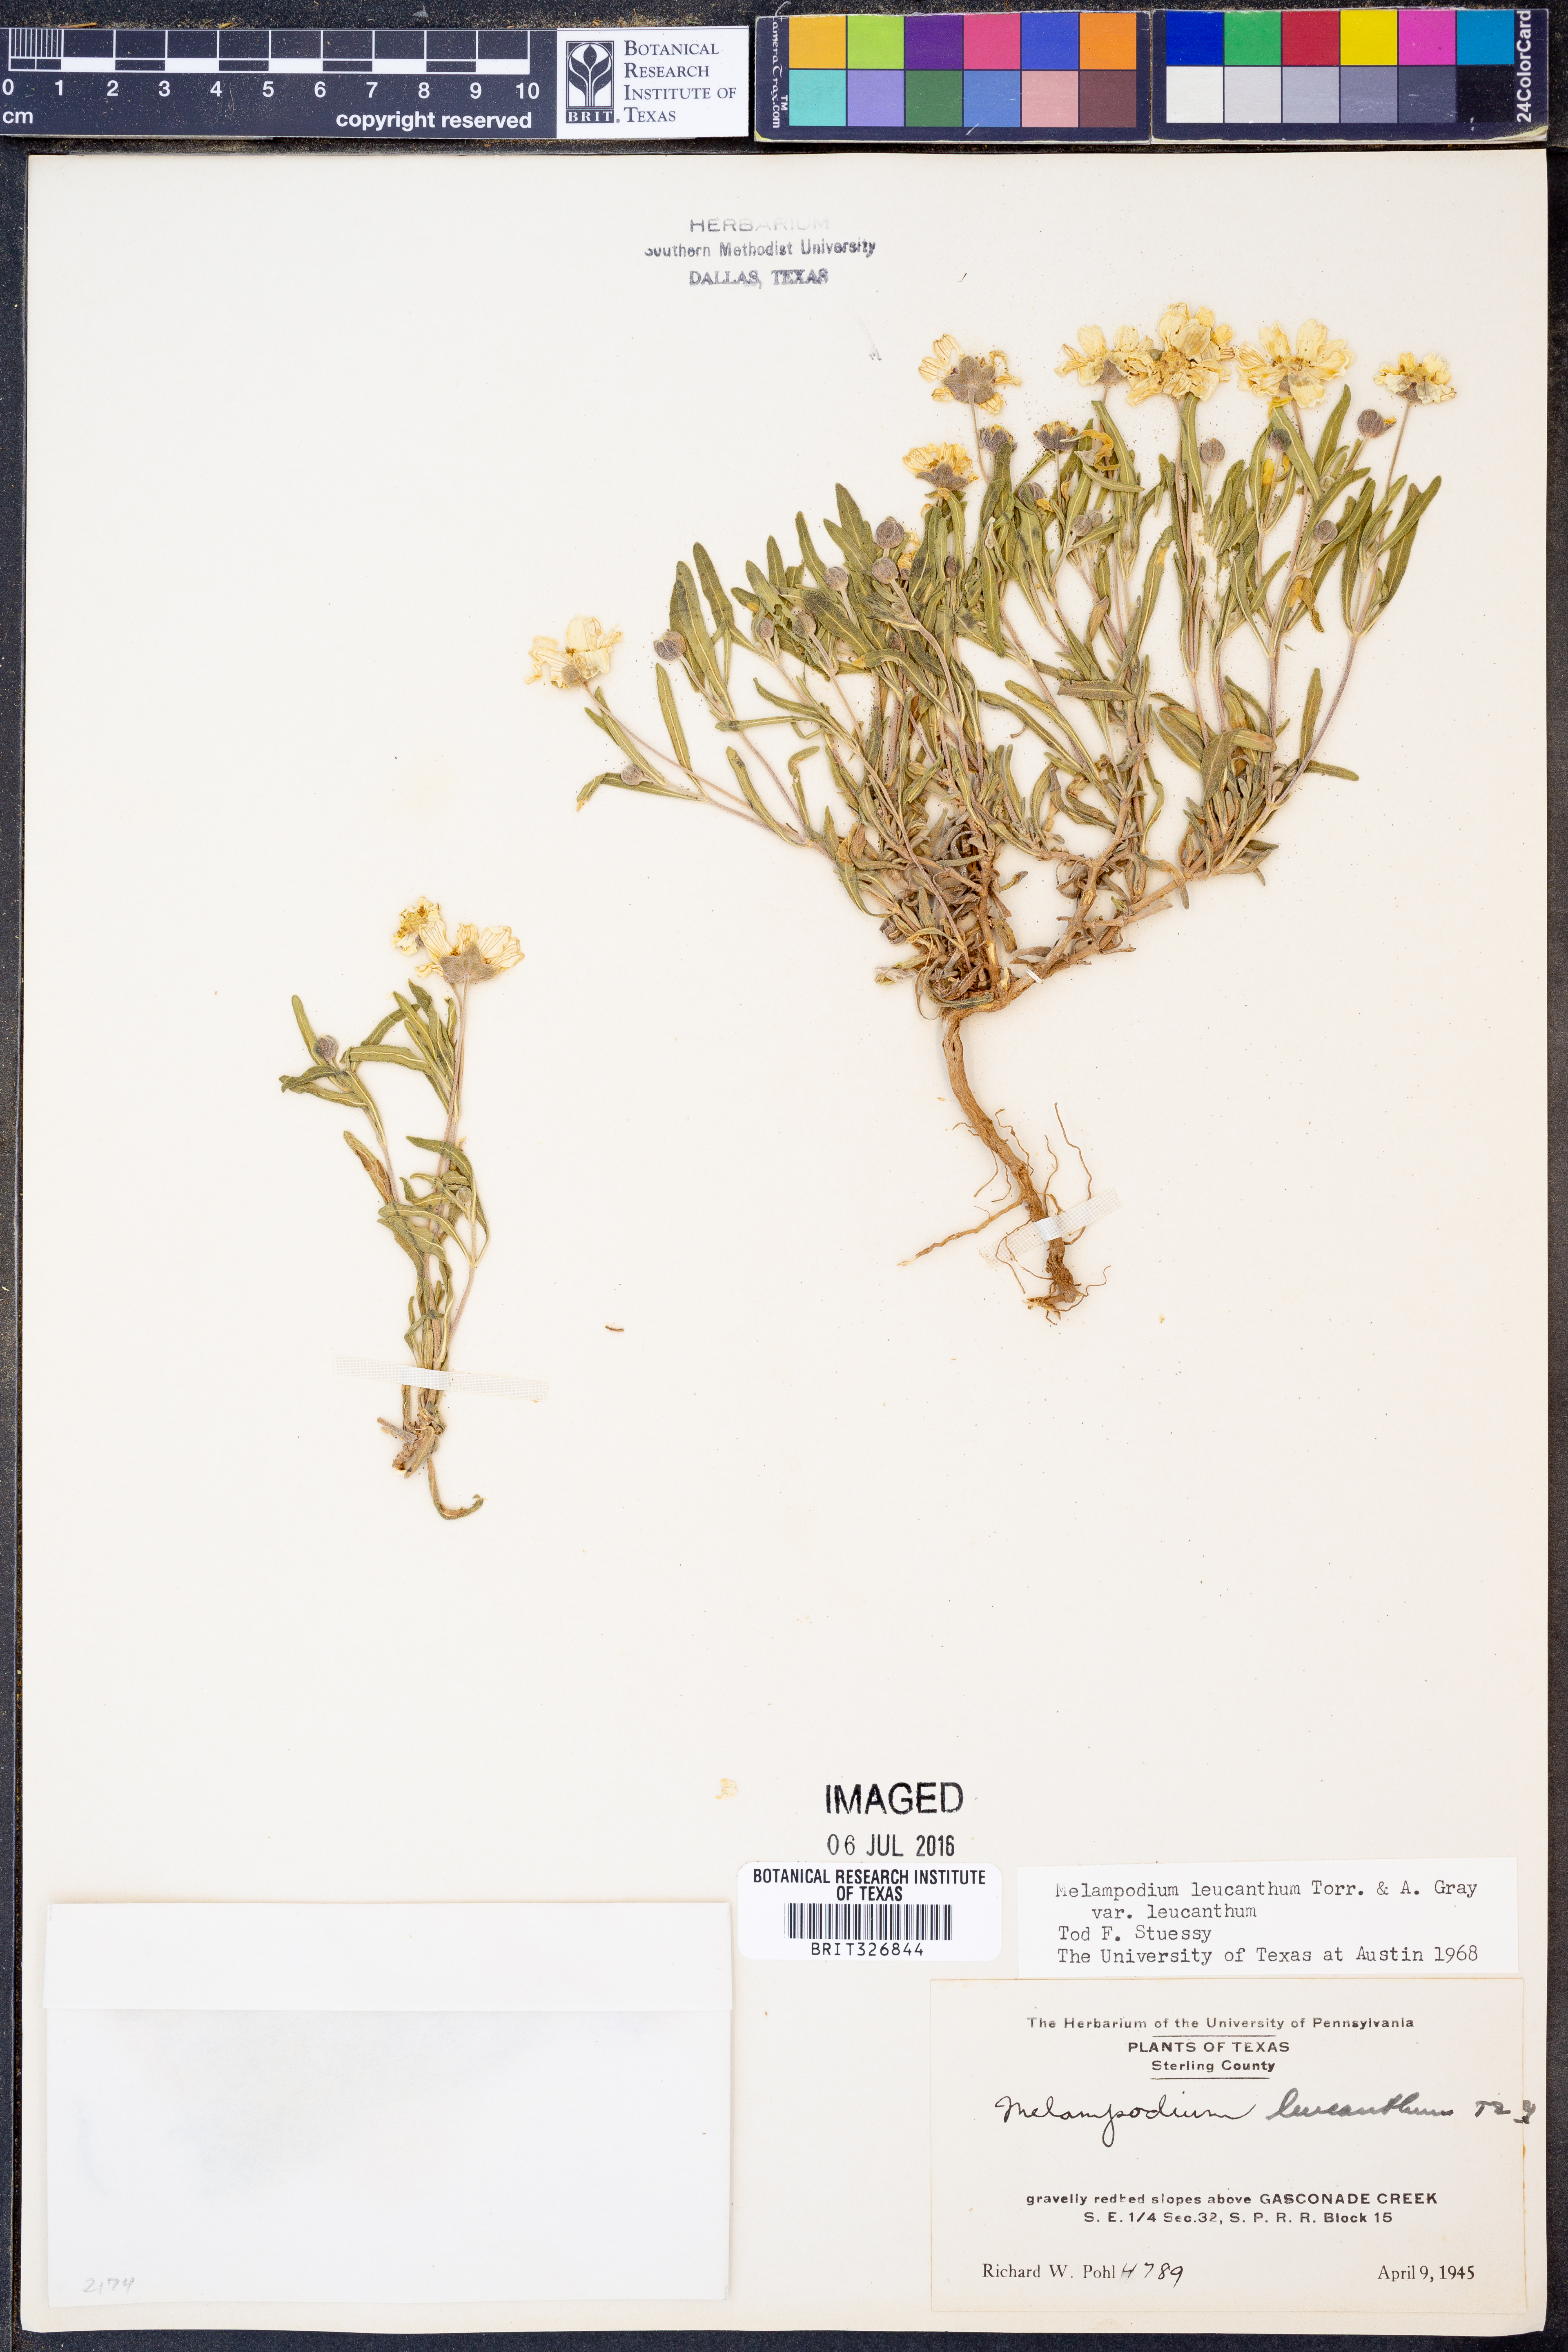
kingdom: Plantae
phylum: Tracheophyta
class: Magnoliopsida
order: Asterales
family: Asteraceae
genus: Melampodium
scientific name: Melampodium leucanthum
